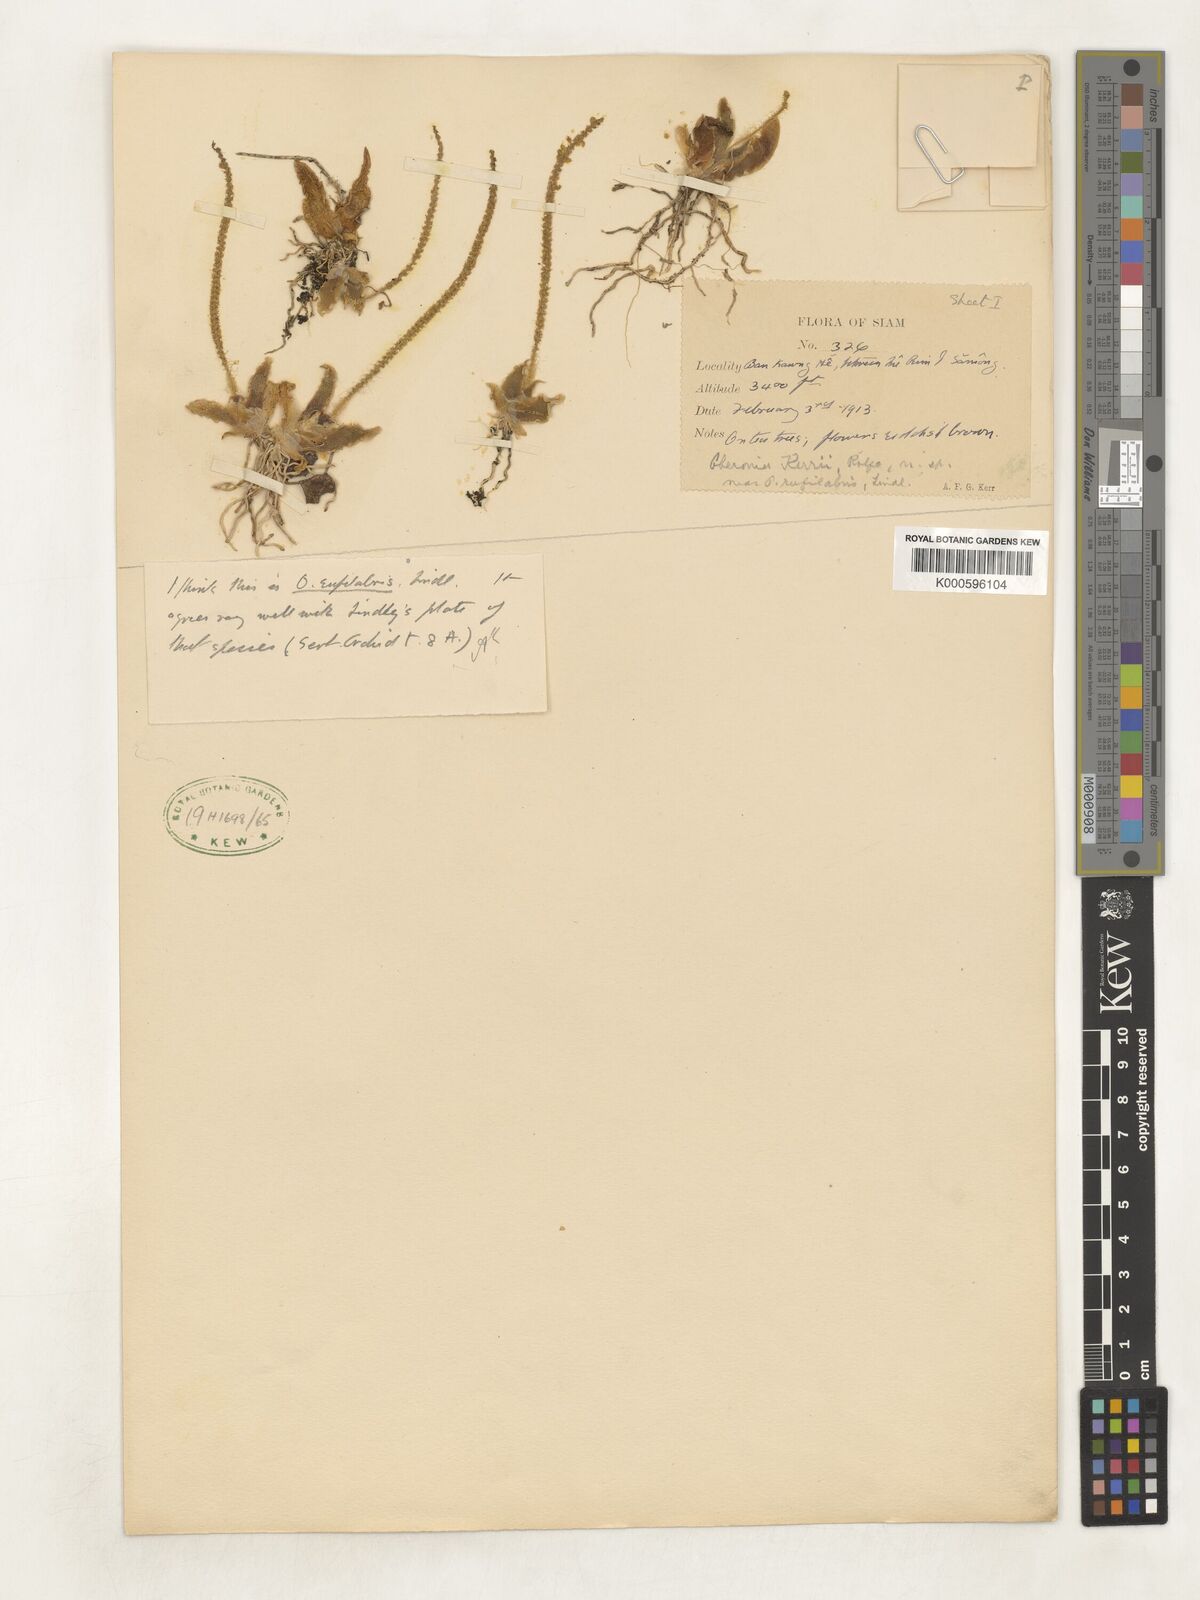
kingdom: Plantae
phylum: Tracheophyta
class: Liliopsida
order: Asparagales
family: Orchidaceae
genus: Oberonia
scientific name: Oberonia rufilabris
